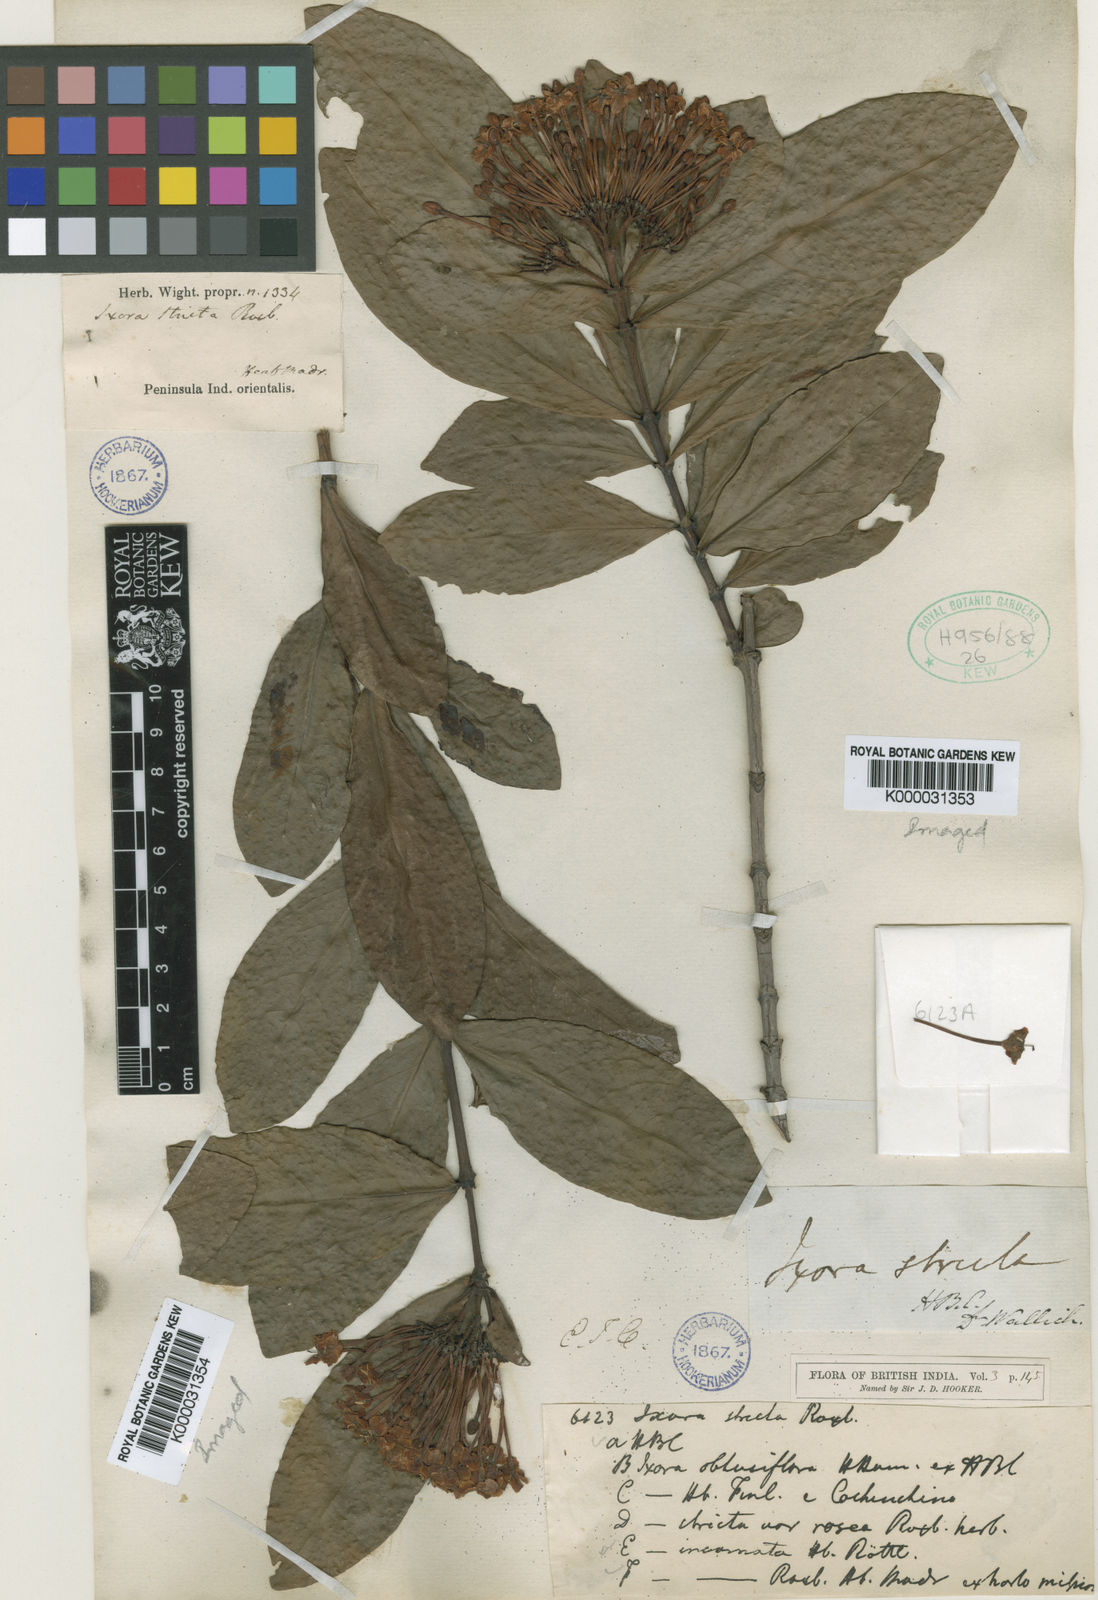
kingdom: Plantae
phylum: Tracheophyta
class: Magnoliopsida
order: Gentianales
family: Rubiaceae
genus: Ixora
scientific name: Ixora chinensis
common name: Chinese ixora
